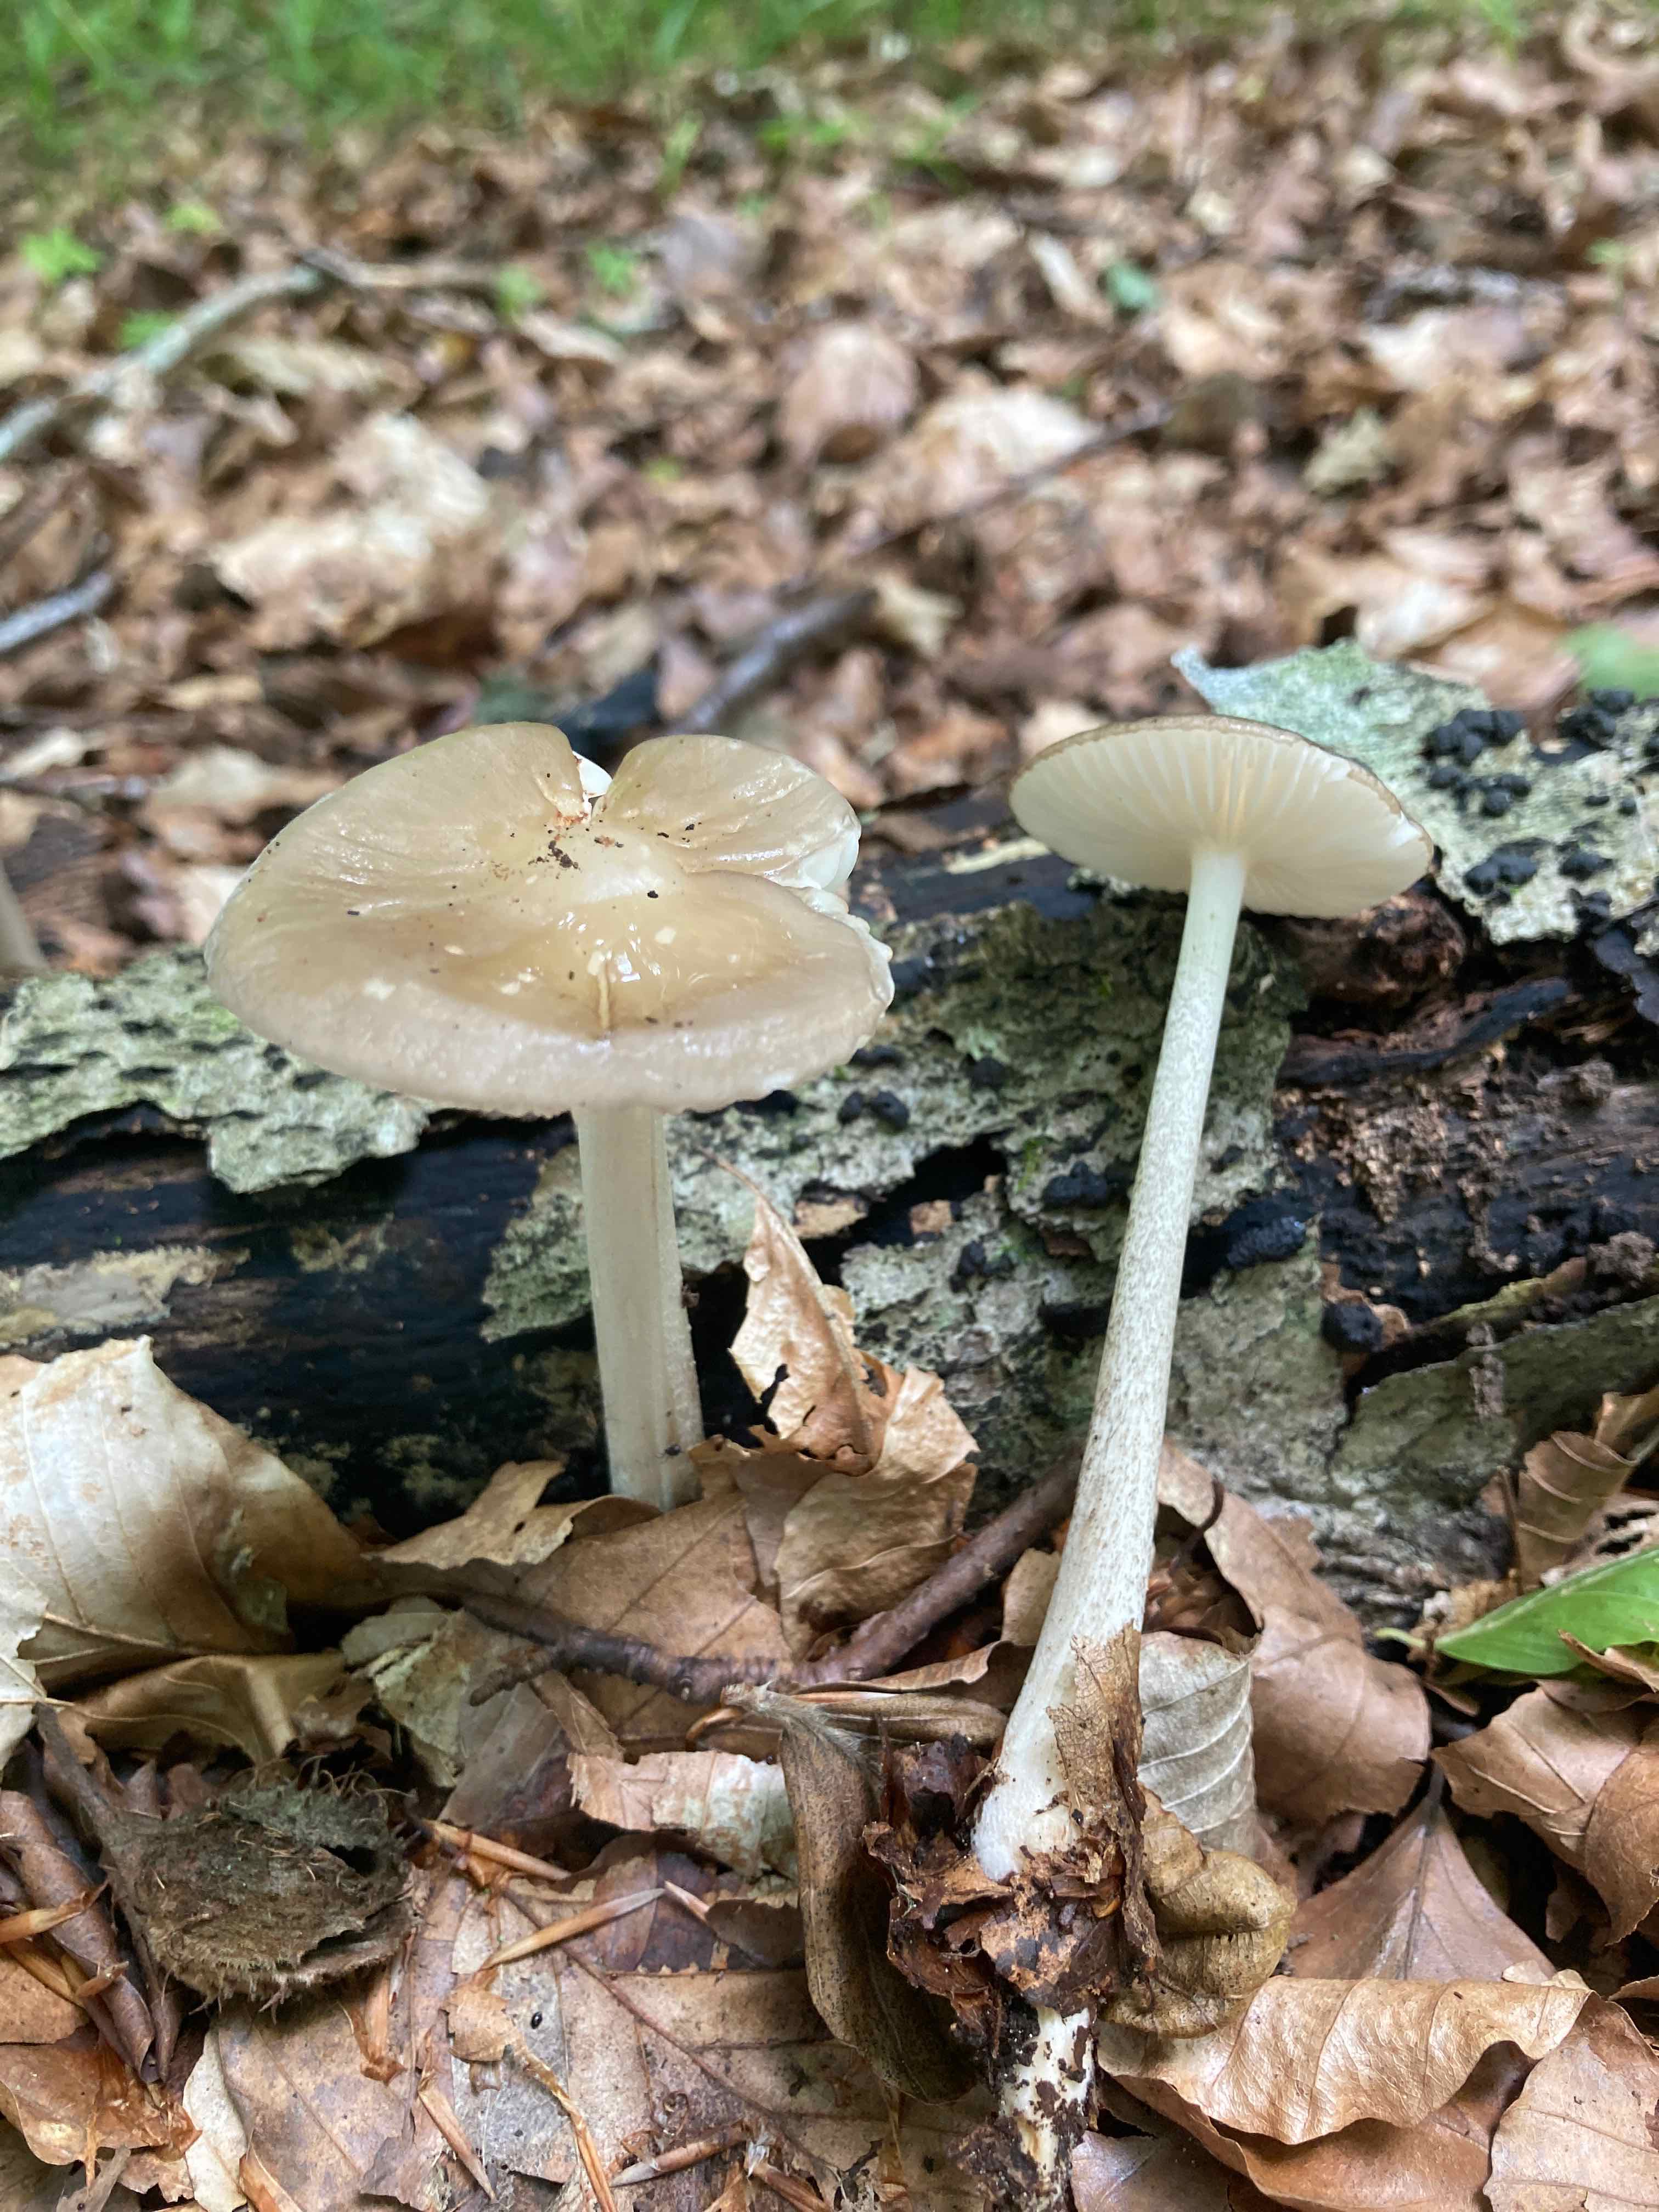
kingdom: Fungi
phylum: Basidiomycota
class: Agaricomycetes
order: Agaricales
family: Physalacriaceae
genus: Hymenopellis
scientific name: Hymenopellis radicata
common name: almindelig pælerodshat
